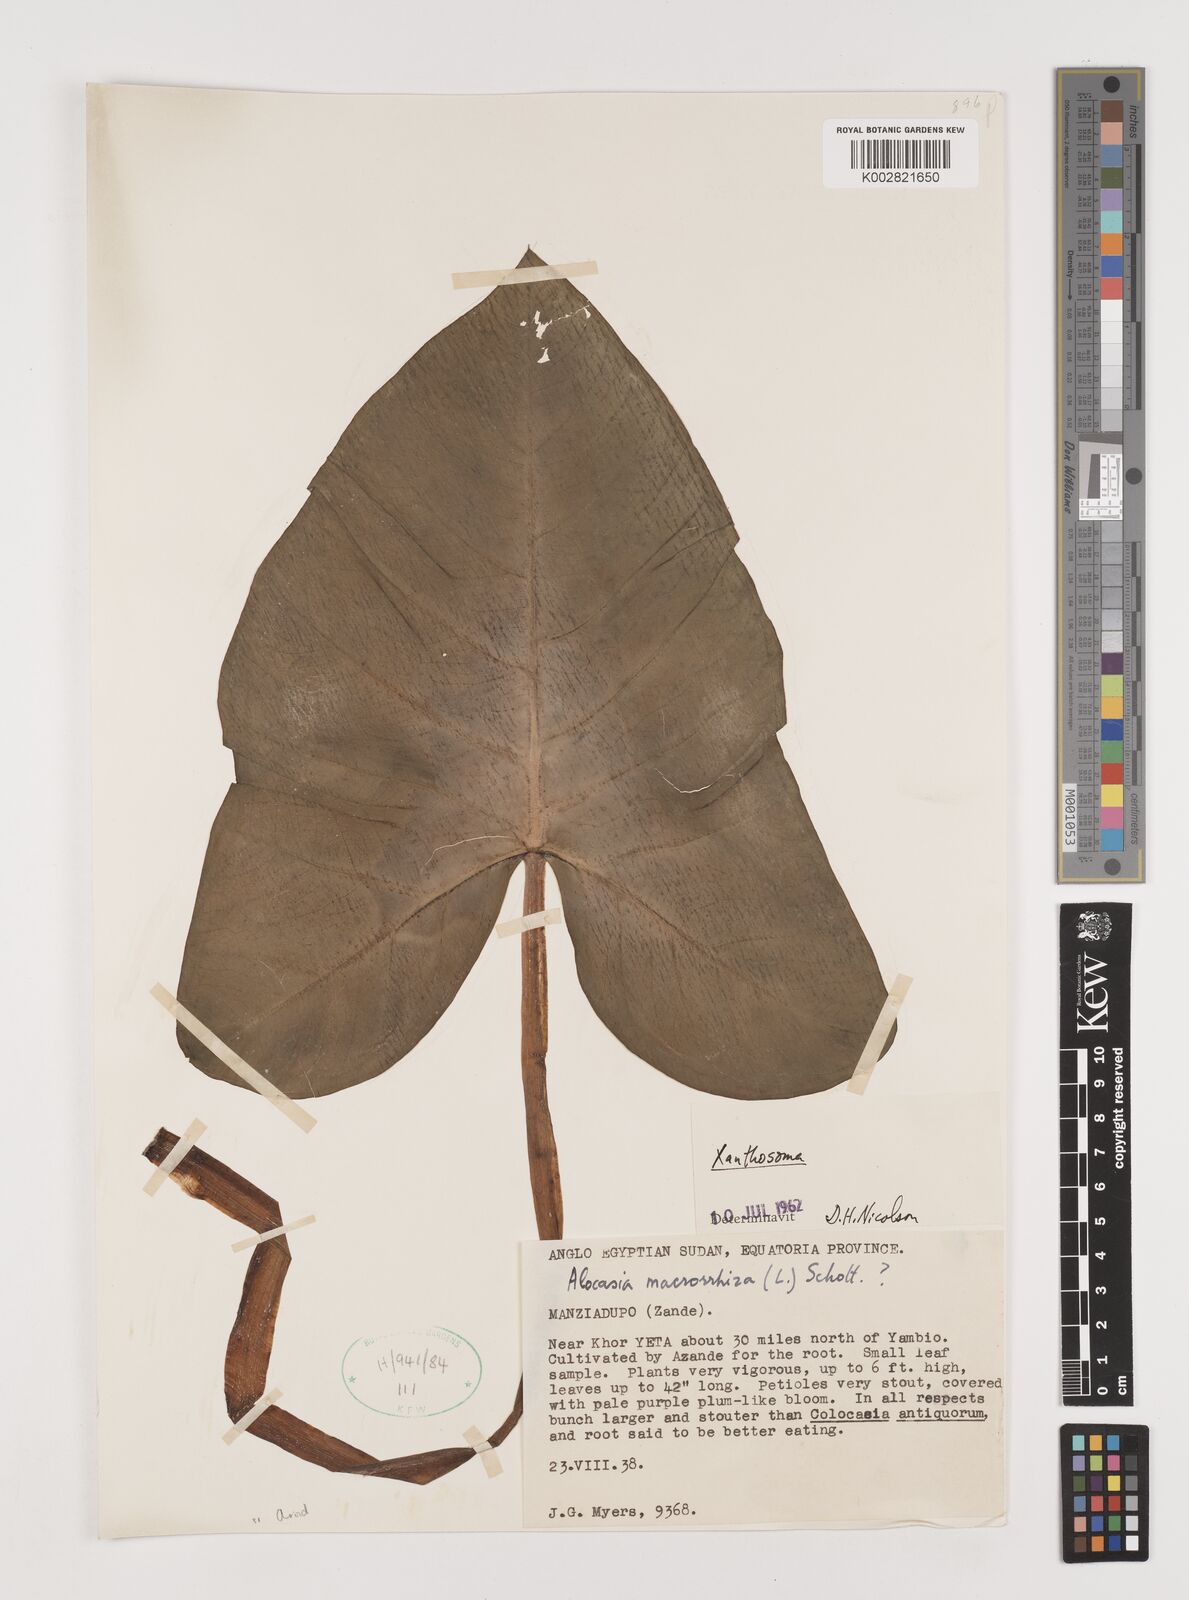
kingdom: Plantae
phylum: Tracheophyta
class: Liliopsida
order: Alismatales
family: Araceae
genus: Xanthosoma
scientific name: Xanthosoma
